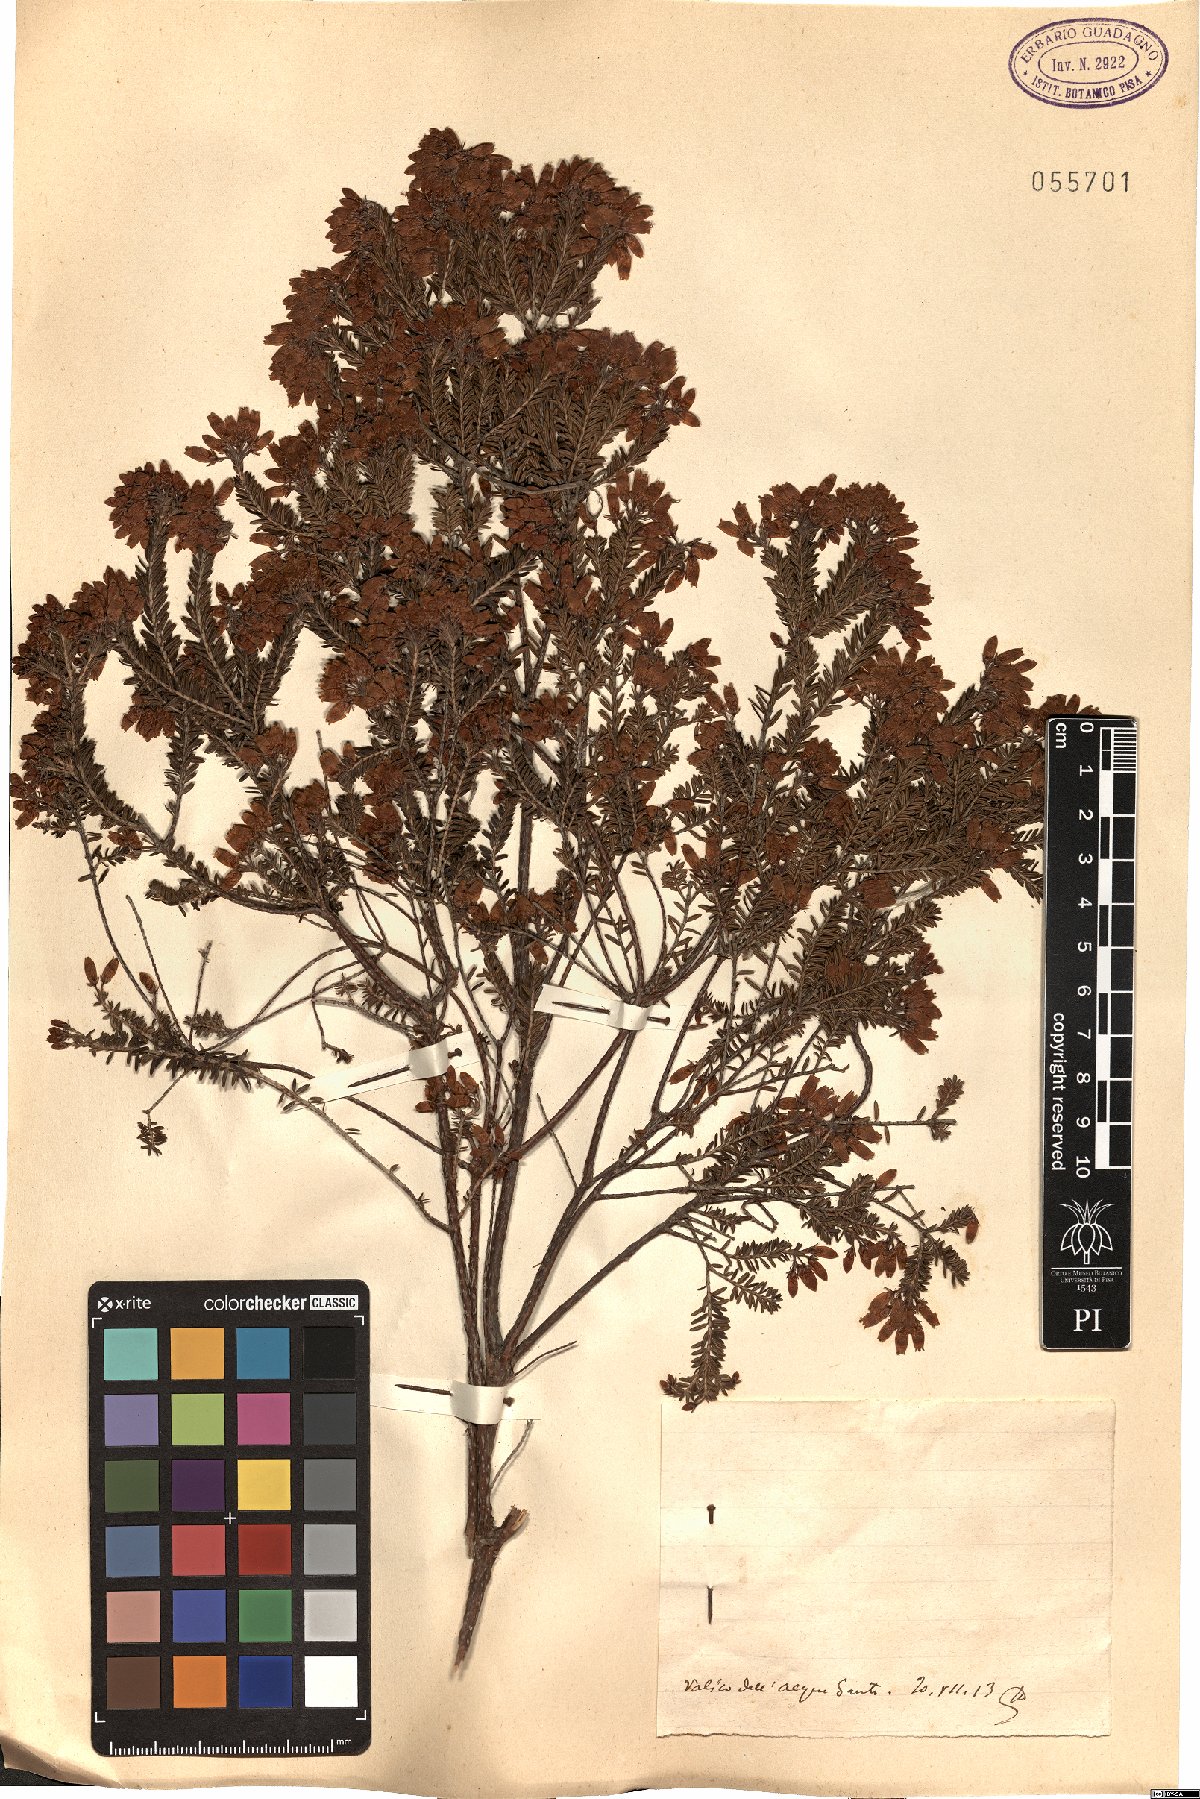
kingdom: Plantae
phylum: Tracheophyta
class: Magnoliopsida
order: Ericales
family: Ericaceae
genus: Erica
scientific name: Erica
